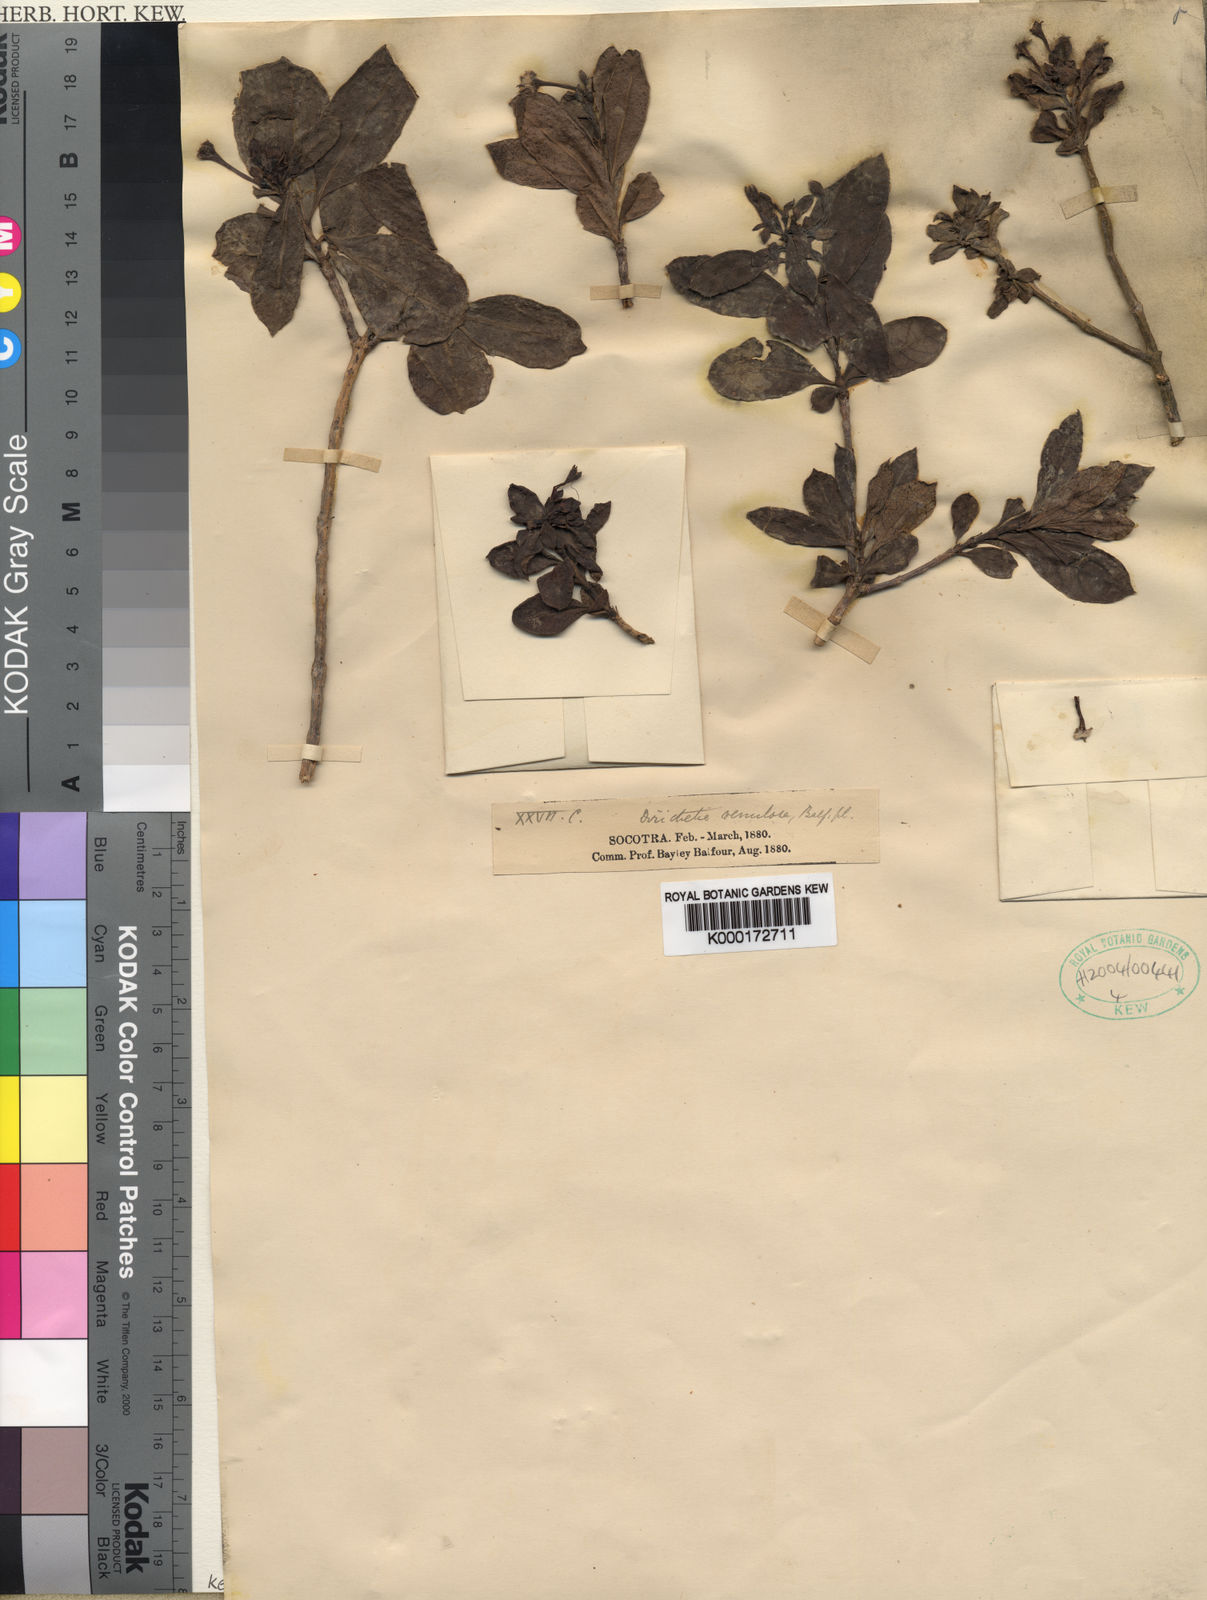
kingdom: Plantae
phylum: Tracheophyta
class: Magnoliopsida
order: Gentianales
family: Rubiaceae
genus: Carphalea
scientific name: Carphalea
